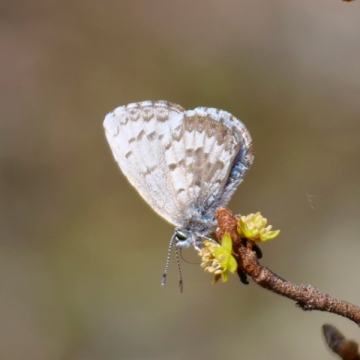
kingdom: Animalia
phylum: Arthropoda
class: Insecta
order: Lepidoptera
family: Lycaenidae
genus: Celastrina
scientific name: Celastrina lucia
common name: Northern Spring Azure
